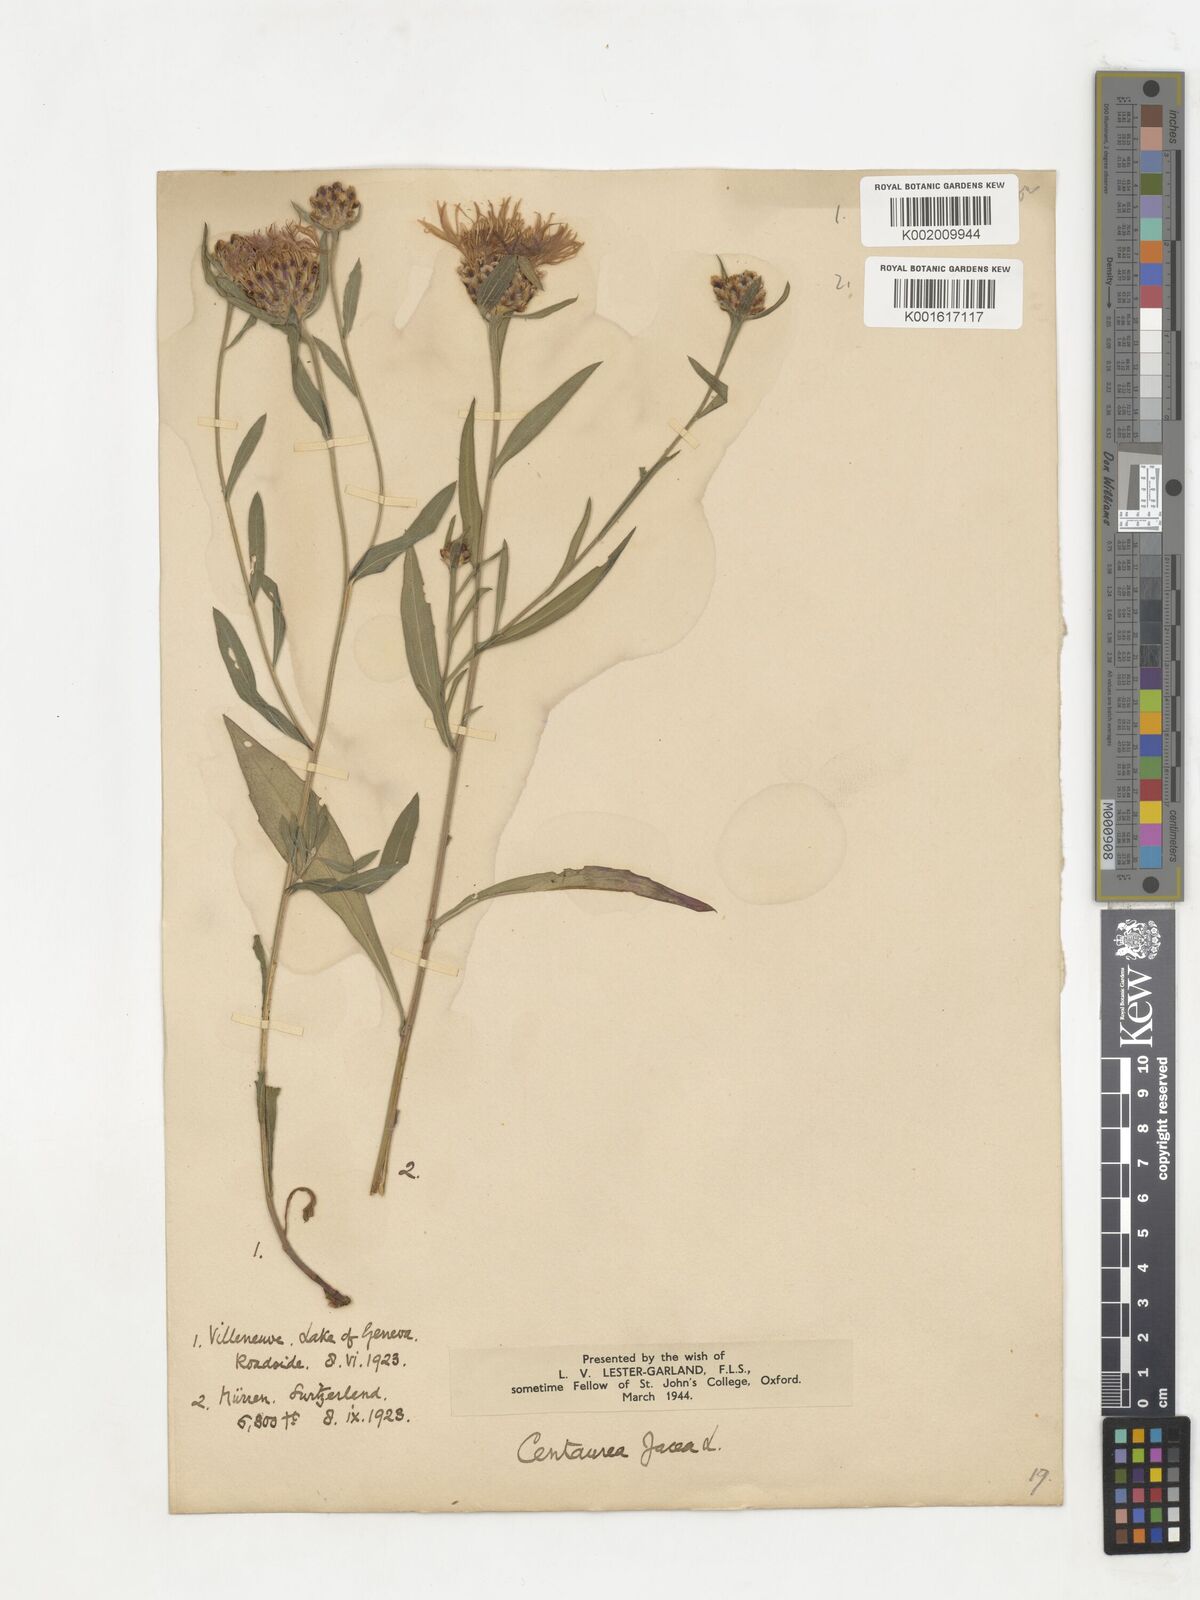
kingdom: Plantae
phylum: Tracheophyta
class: Magnoliopsida
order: Asterales
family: Asteraceae
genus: Centaurea
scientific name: Centaurea jacea
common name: Brown knapweed
